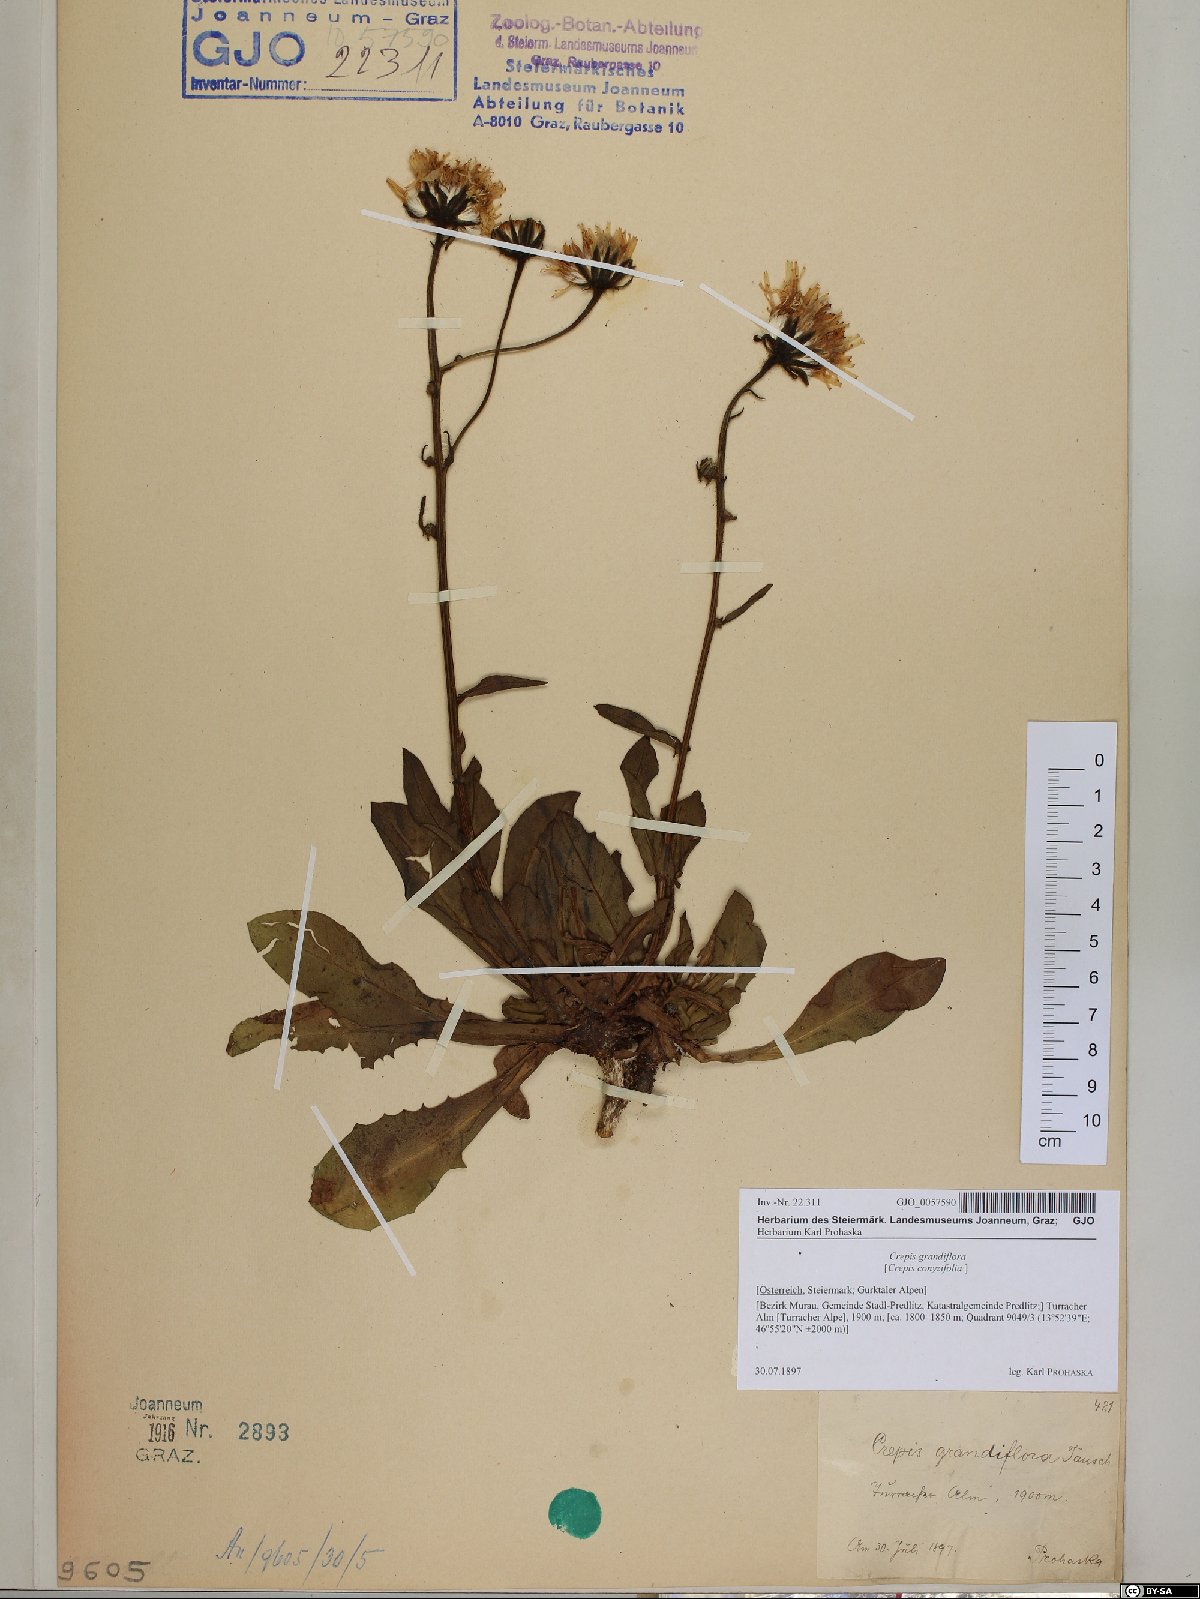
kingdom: Plantae
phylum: Tracheophyta
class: Magnoliopsida
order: Asterales
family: Asteraceae
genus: Crepis
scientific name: Crepis pyrenaica
